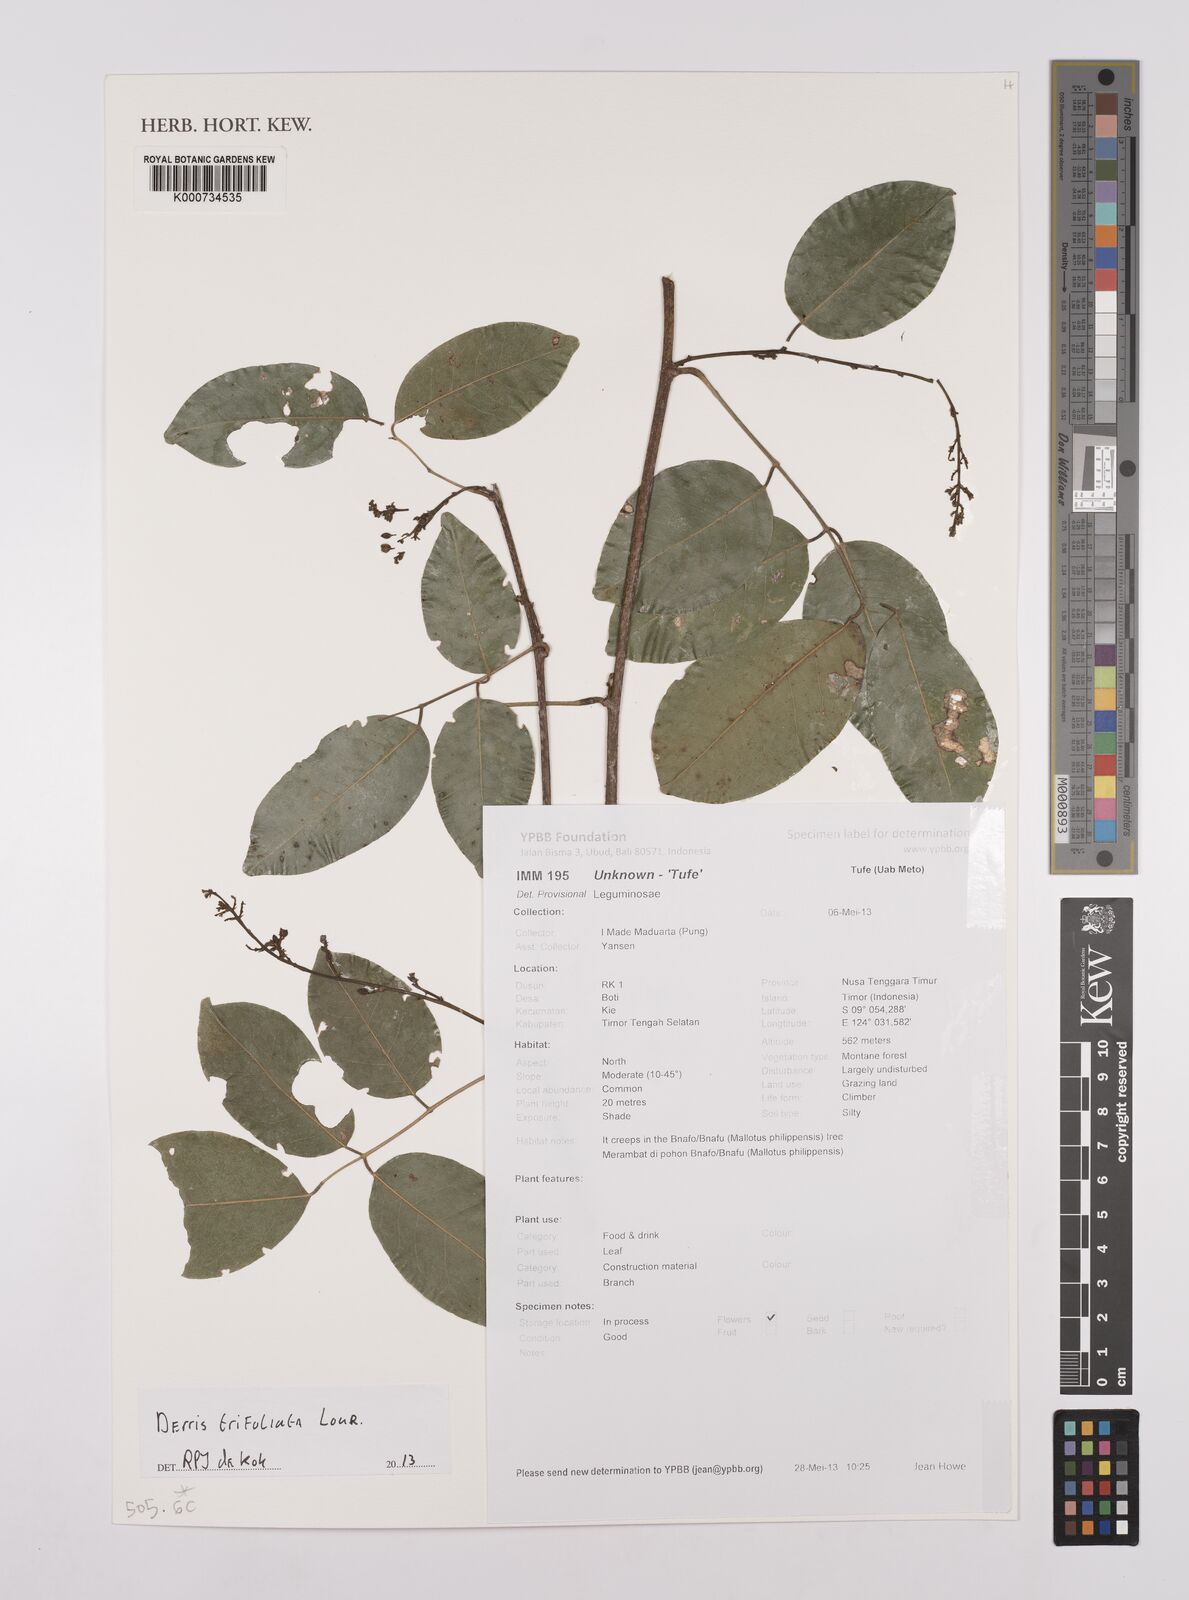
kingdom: Plantae
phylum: Tracheophyta
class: Magnoliopsida
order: Fabales
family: Fabaceae
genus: Derris
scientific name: Derris trifoliata
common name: Three-leaf derris
